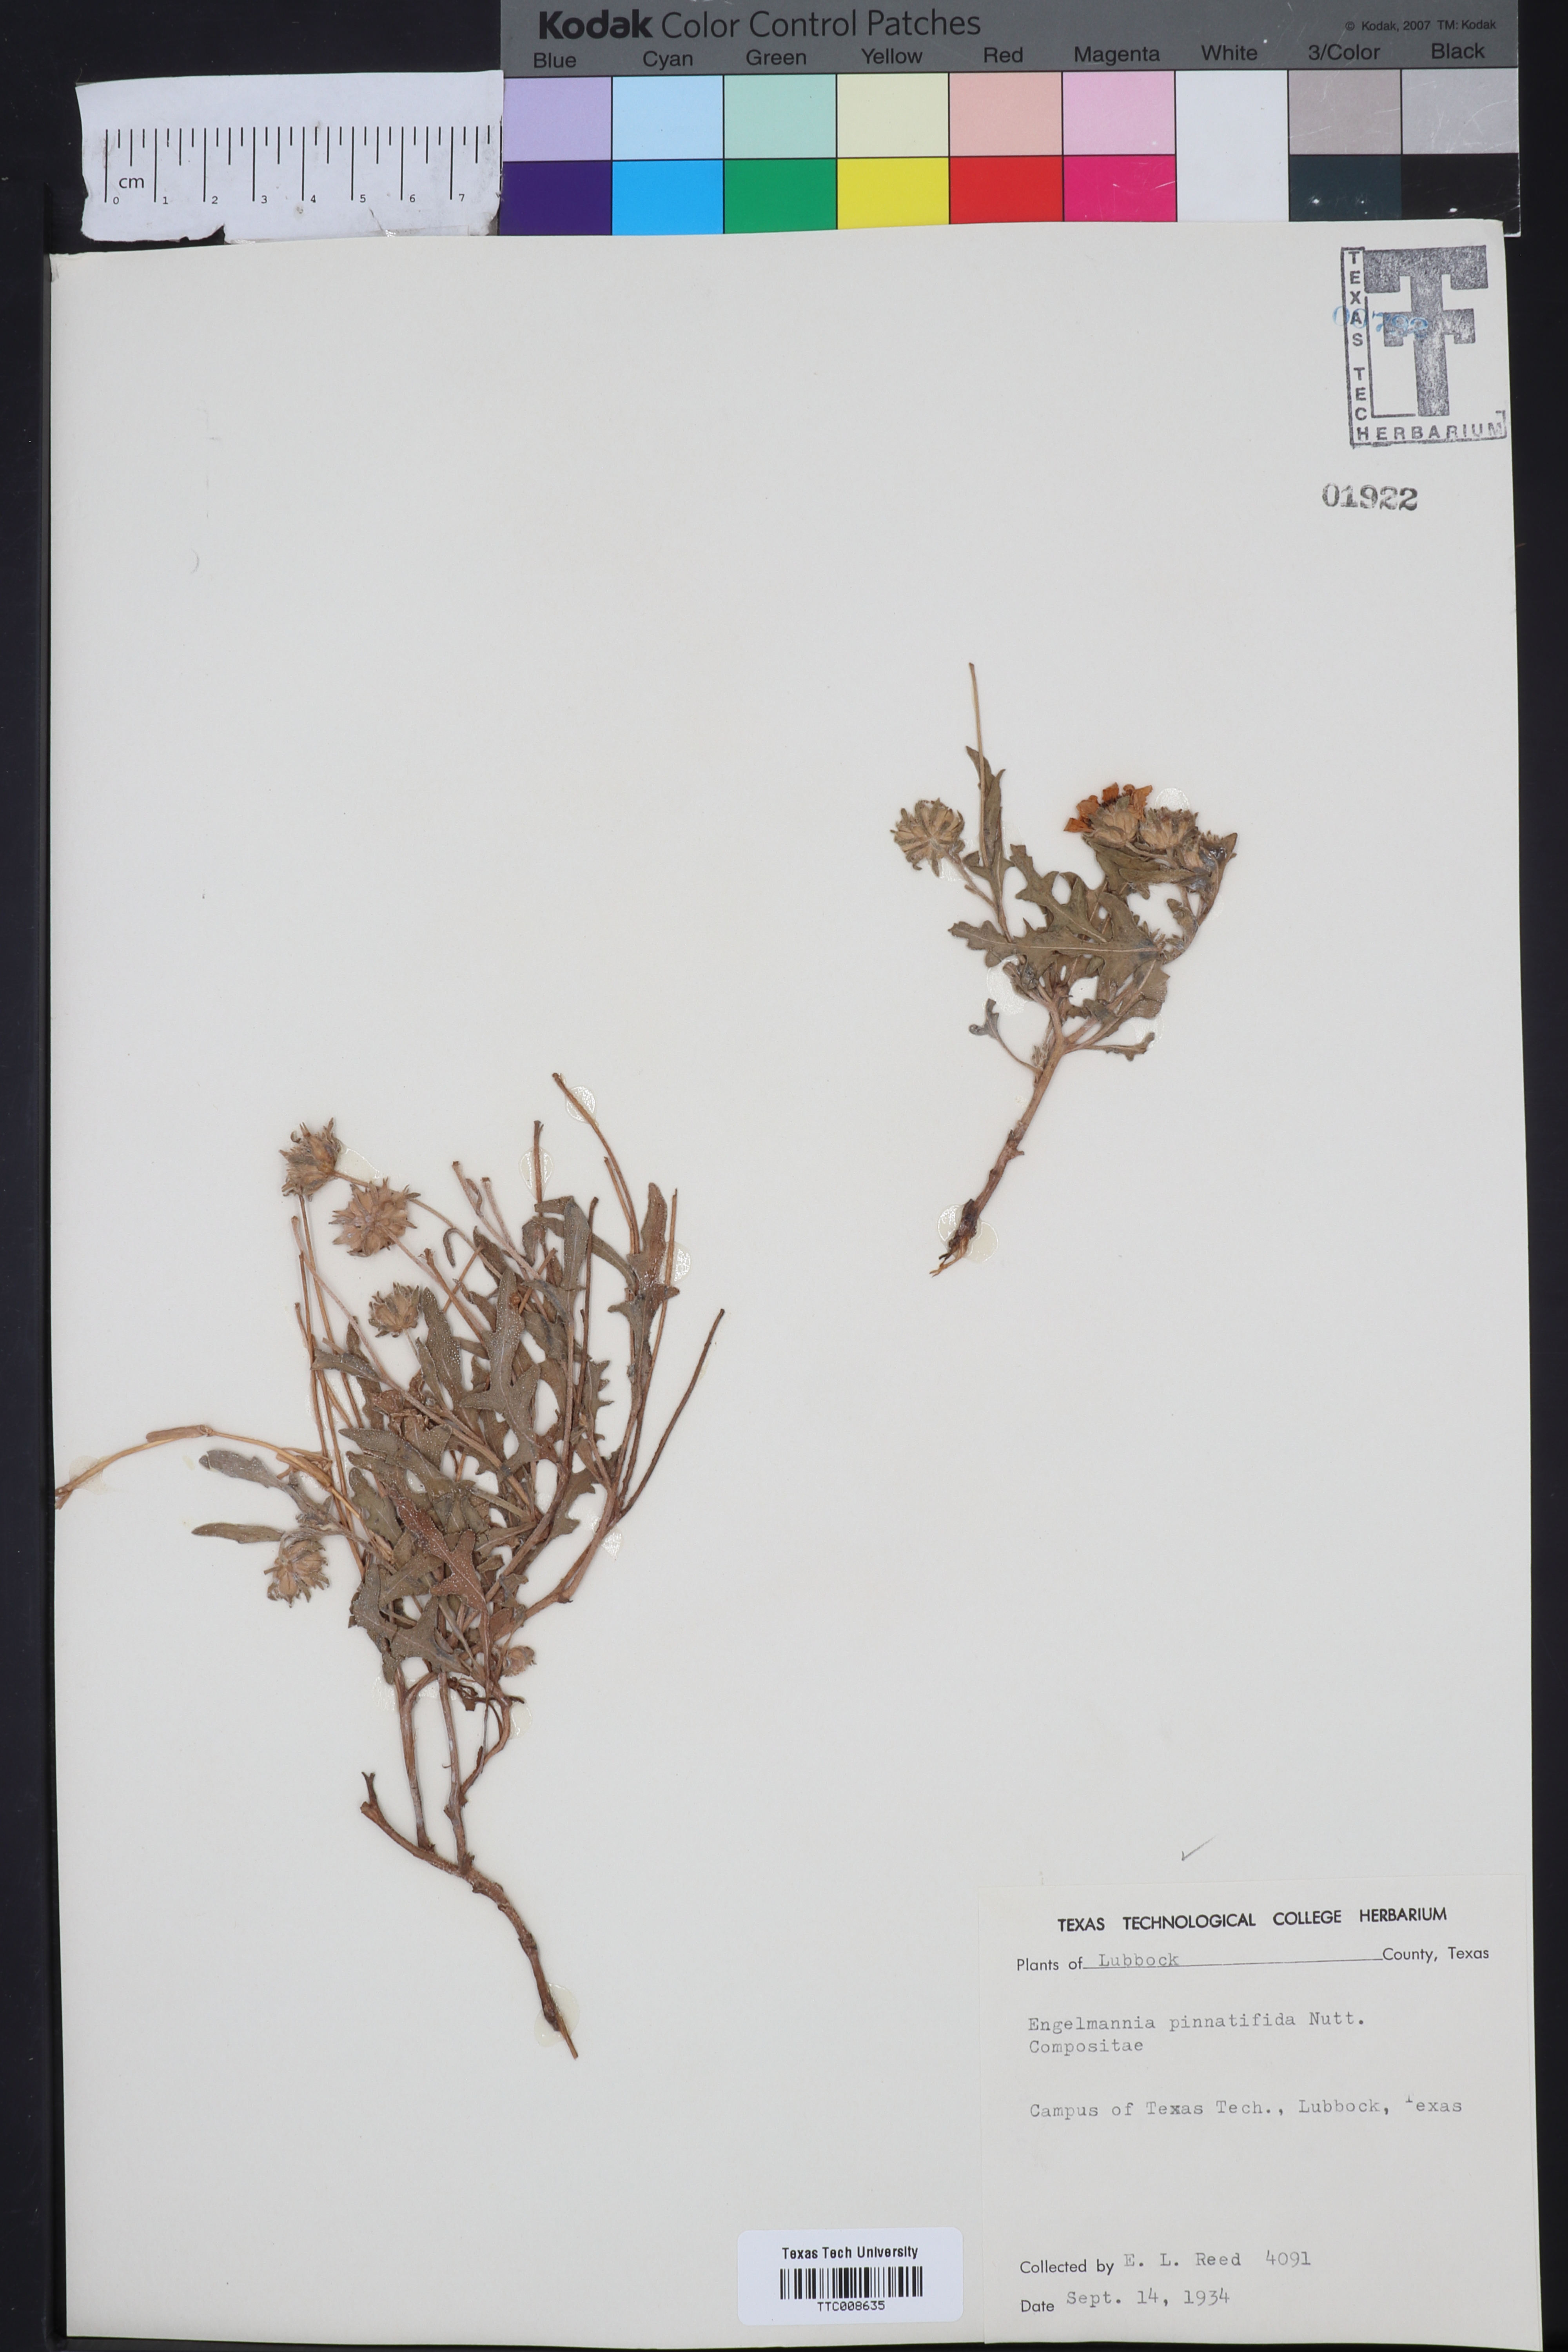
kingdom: Plantae
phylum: Tracheophyta
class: Magnoliopsida
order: Asterales
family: Asteraceae
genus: Engelmannia
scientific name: Engelmannia peristenia
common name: Engelmann's daisy
